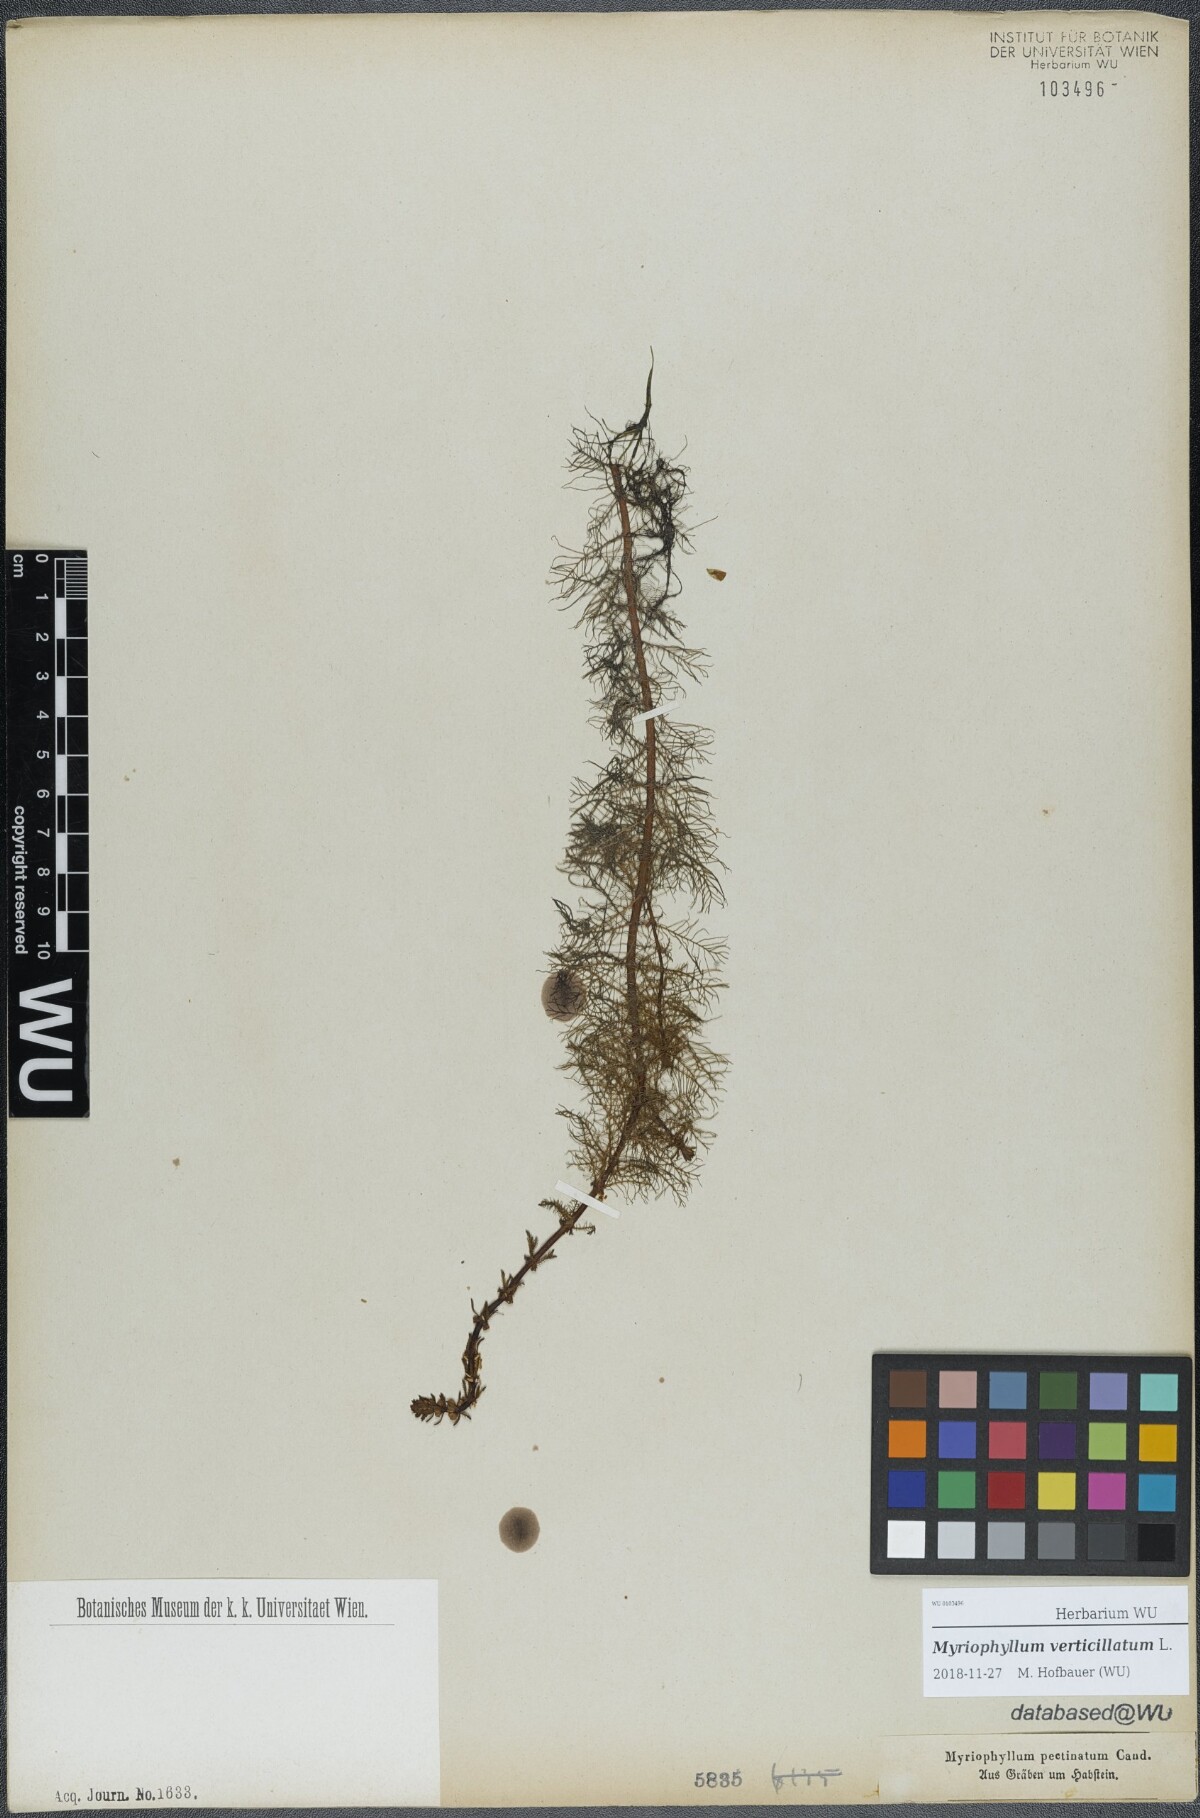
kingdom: Plantae
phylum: Tracheophyta
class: Magnoliopsida
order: Saxifragales
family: Haloragaceae
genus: Myriophyllum
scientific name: Myriophyllum verticillatum
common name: Whorled water-milfoil
